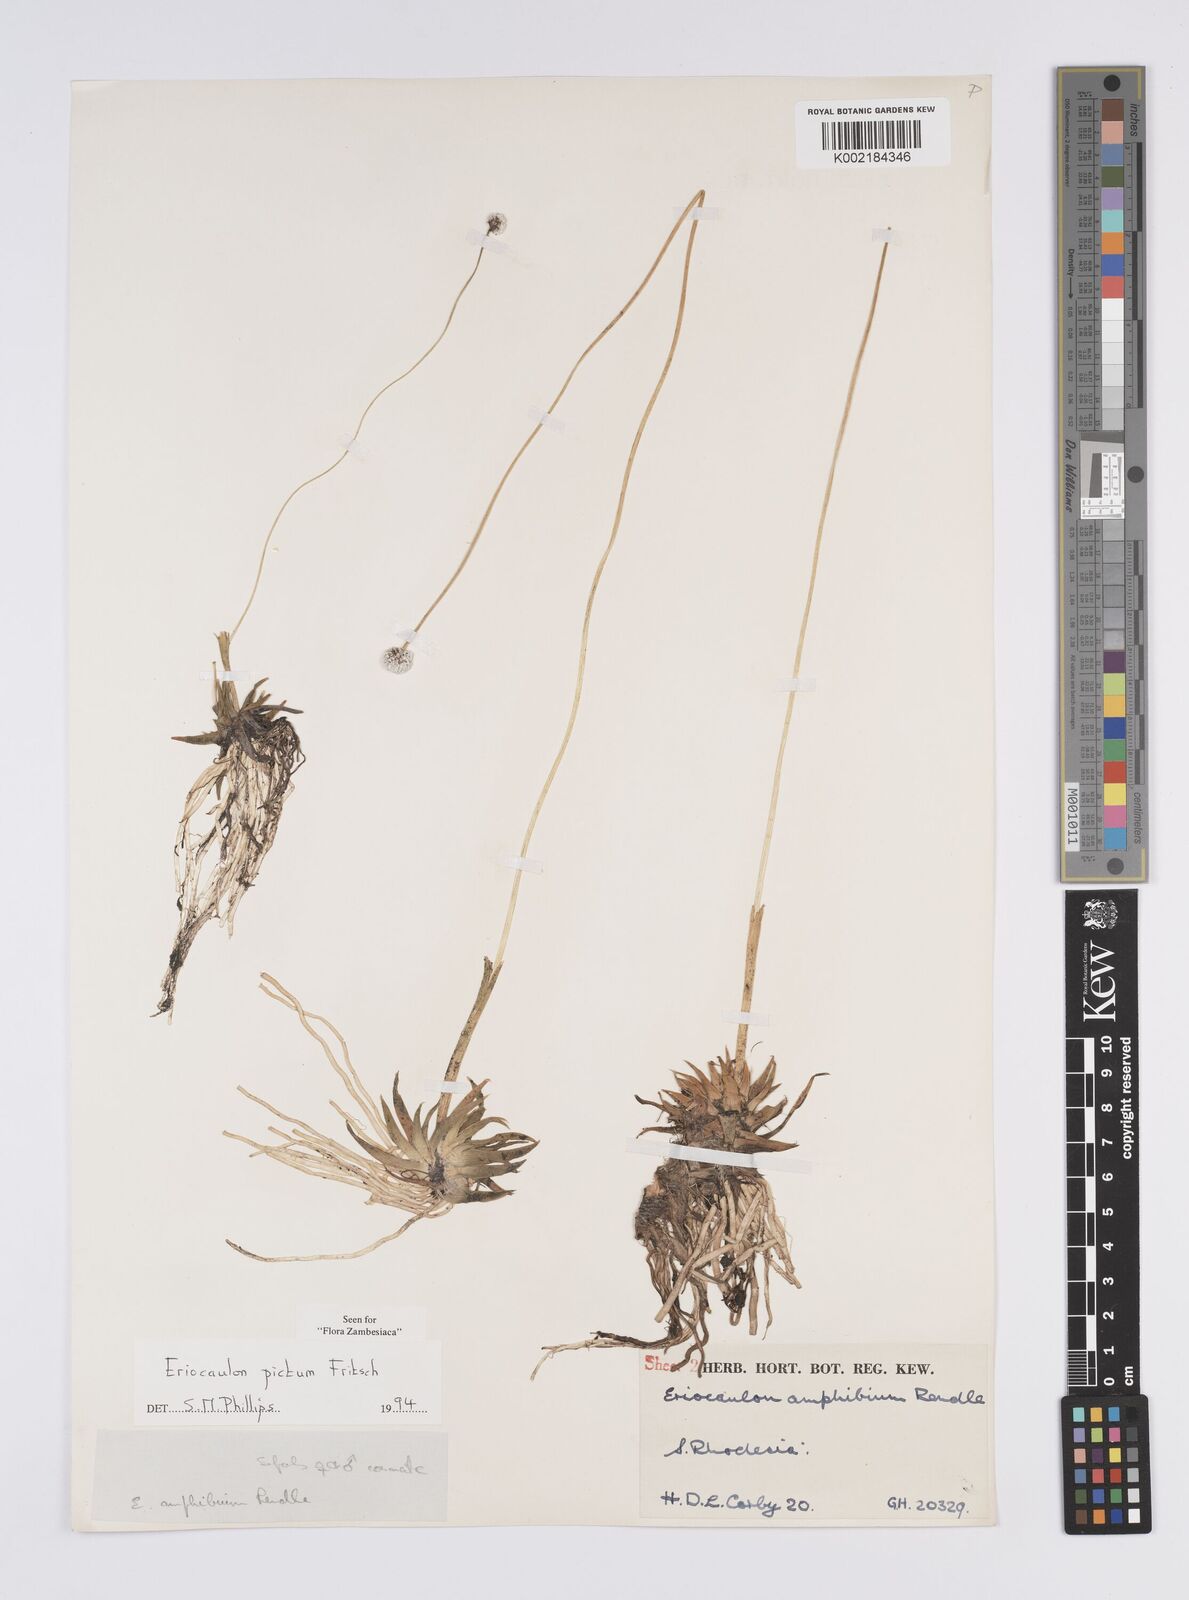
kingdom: Plantae
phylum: Tracheophyta
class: Liliopsida
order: Poales
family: Eriocaulaceae
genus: Eriocaulon
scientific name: Eriocaulon pictum
